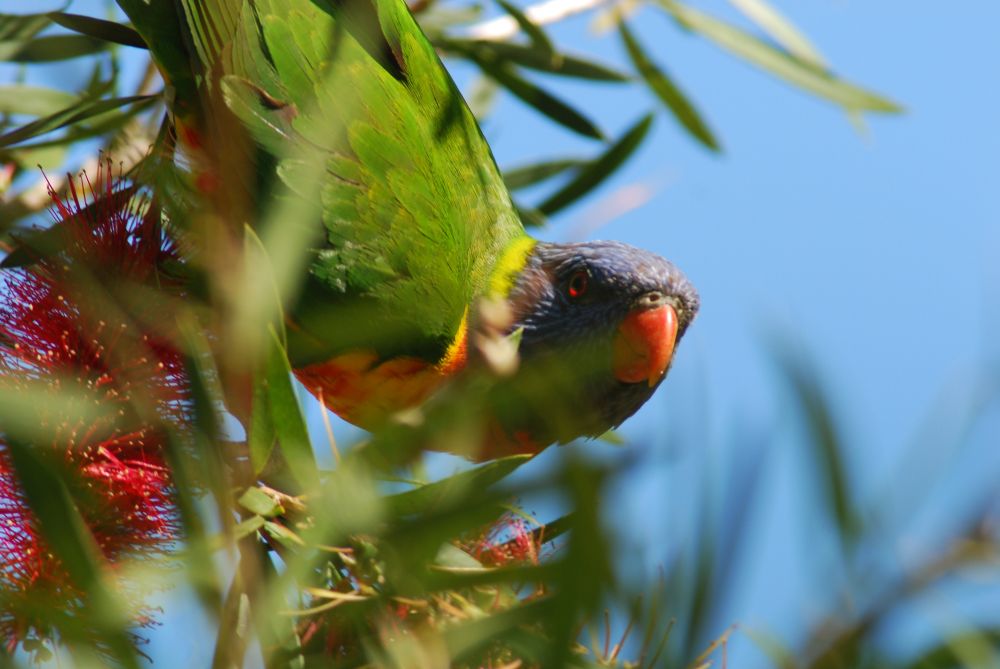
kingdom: Animalia
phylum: Chordata
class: Aves
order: Psittaciformes
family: Psittacidae
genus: Trichoglossus
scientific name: Trichoglossus haematodus
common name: Coconut lorikeet
